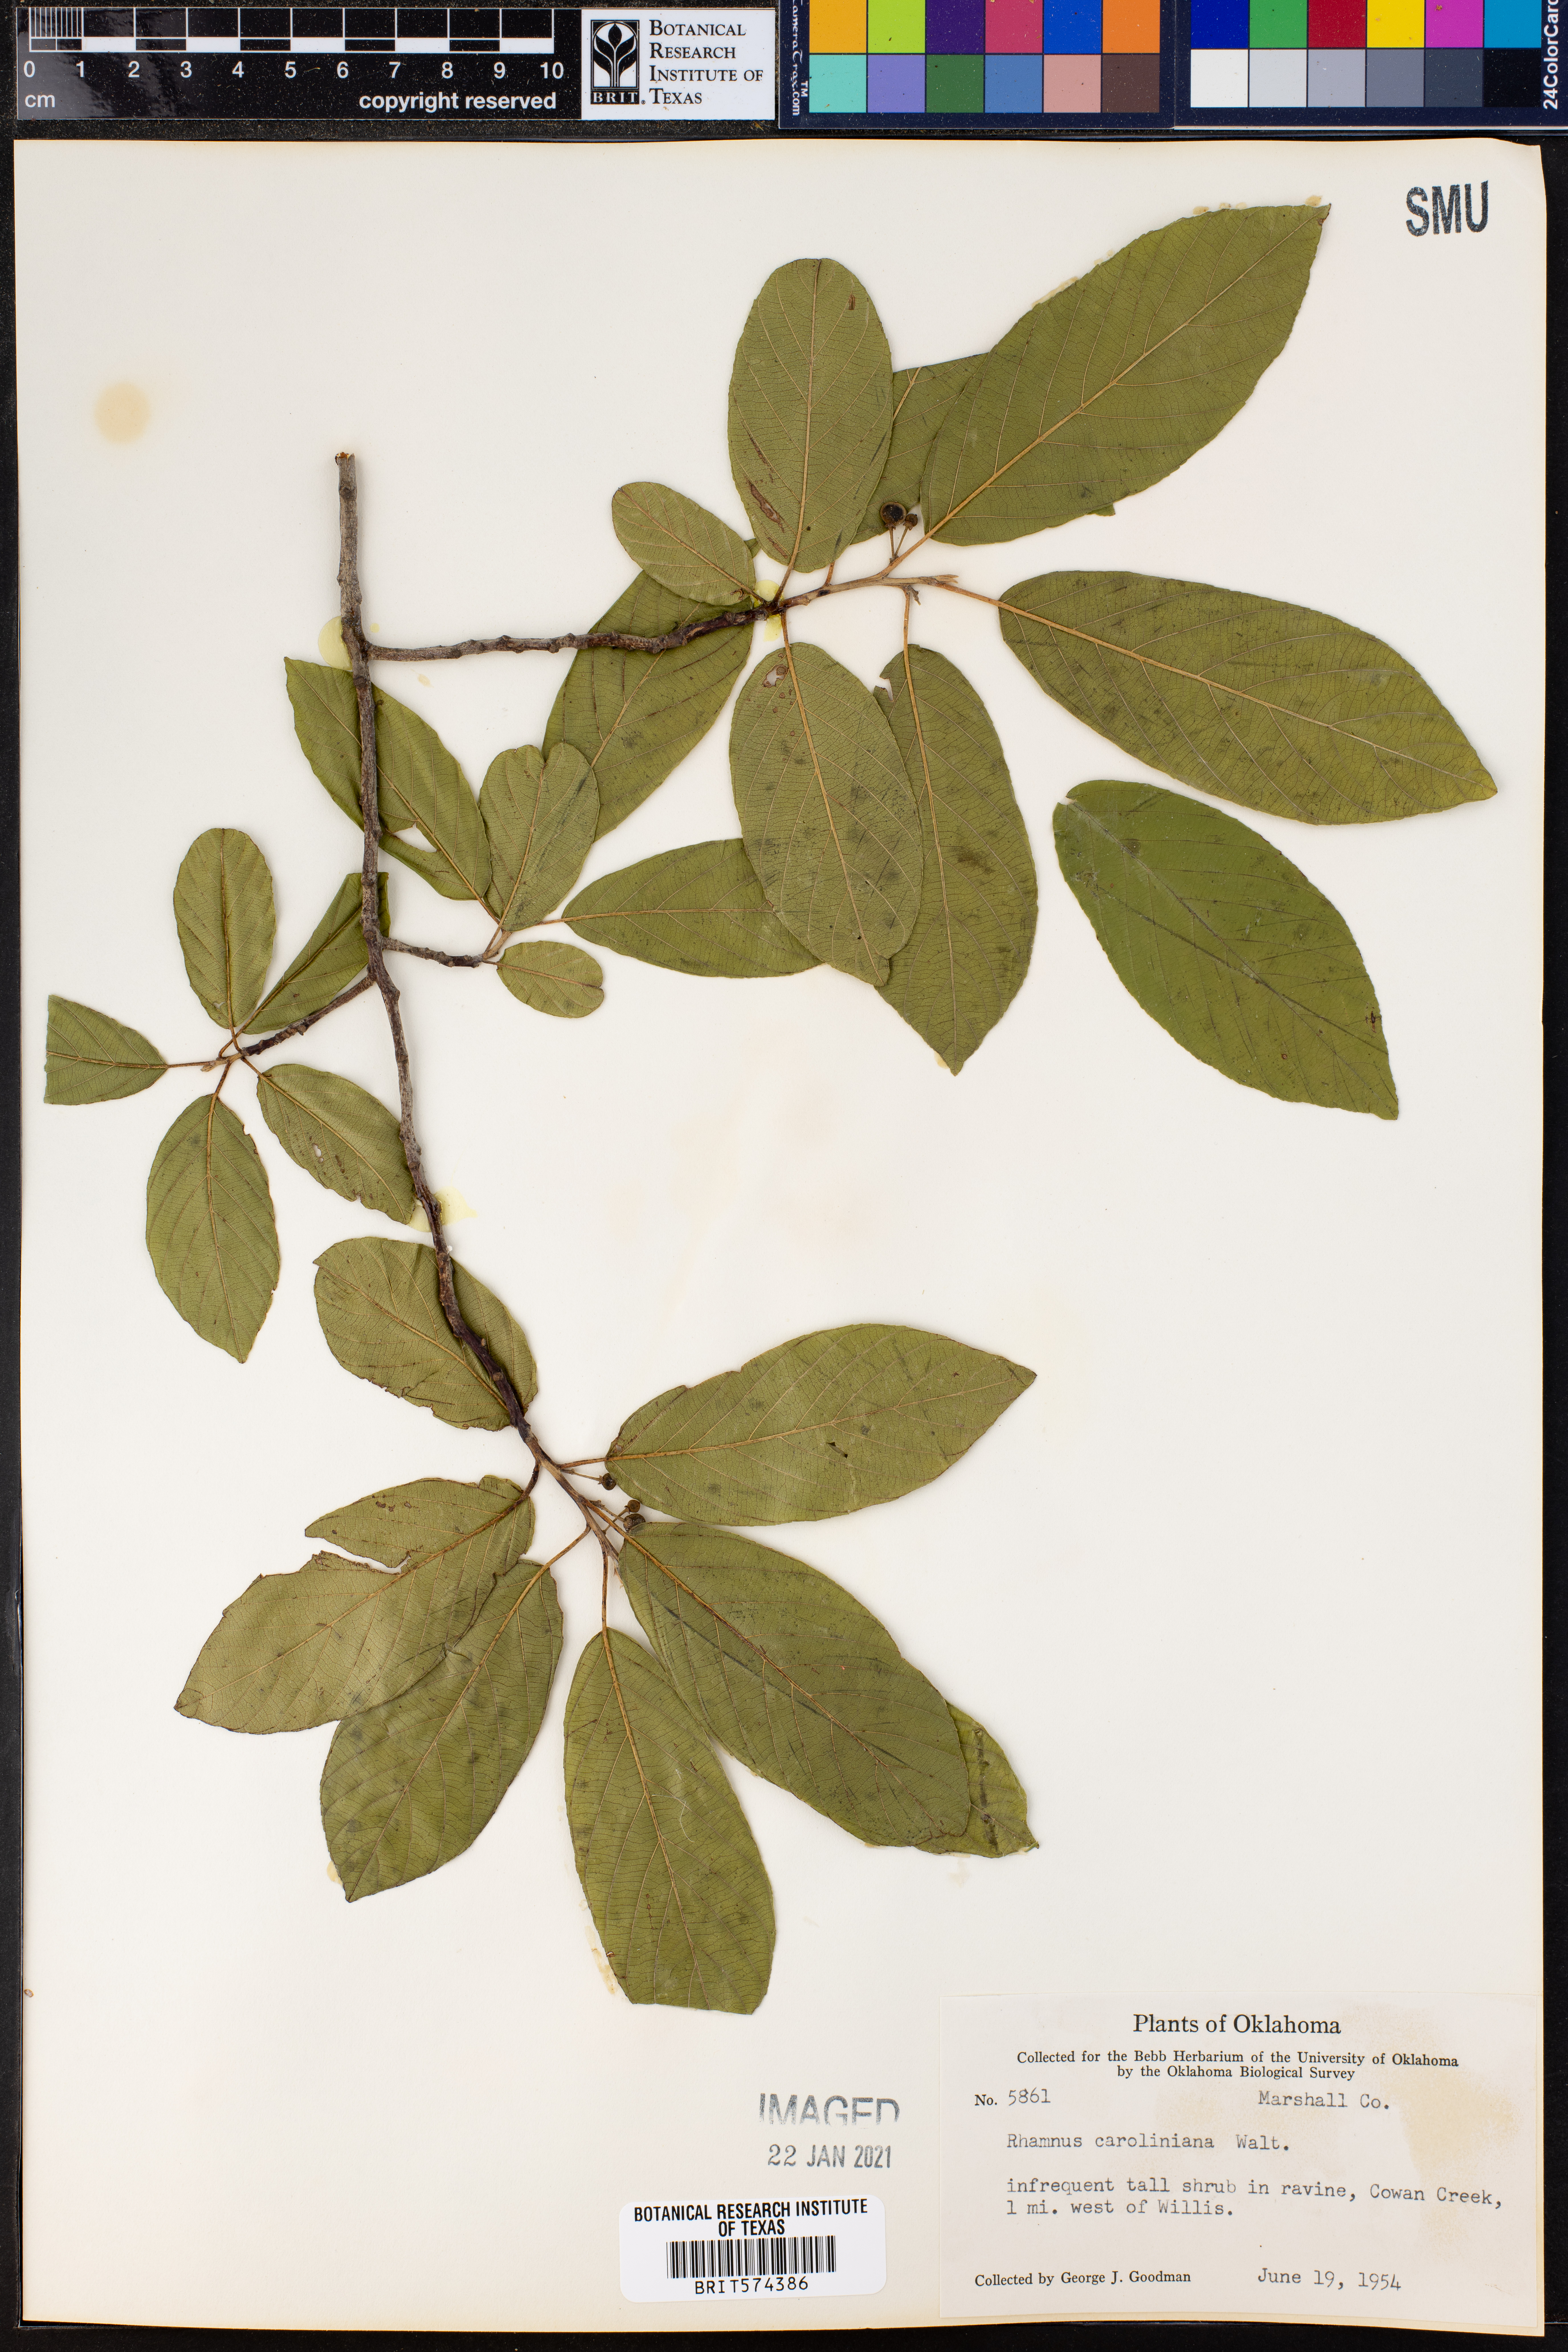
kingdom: Plantae
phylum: Tracheophyta
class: Magnoliopsida
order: Rosales
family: Rhamnaceae
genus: Frangula
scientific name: Frangula caroliniana
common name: Carolina buckthorn
